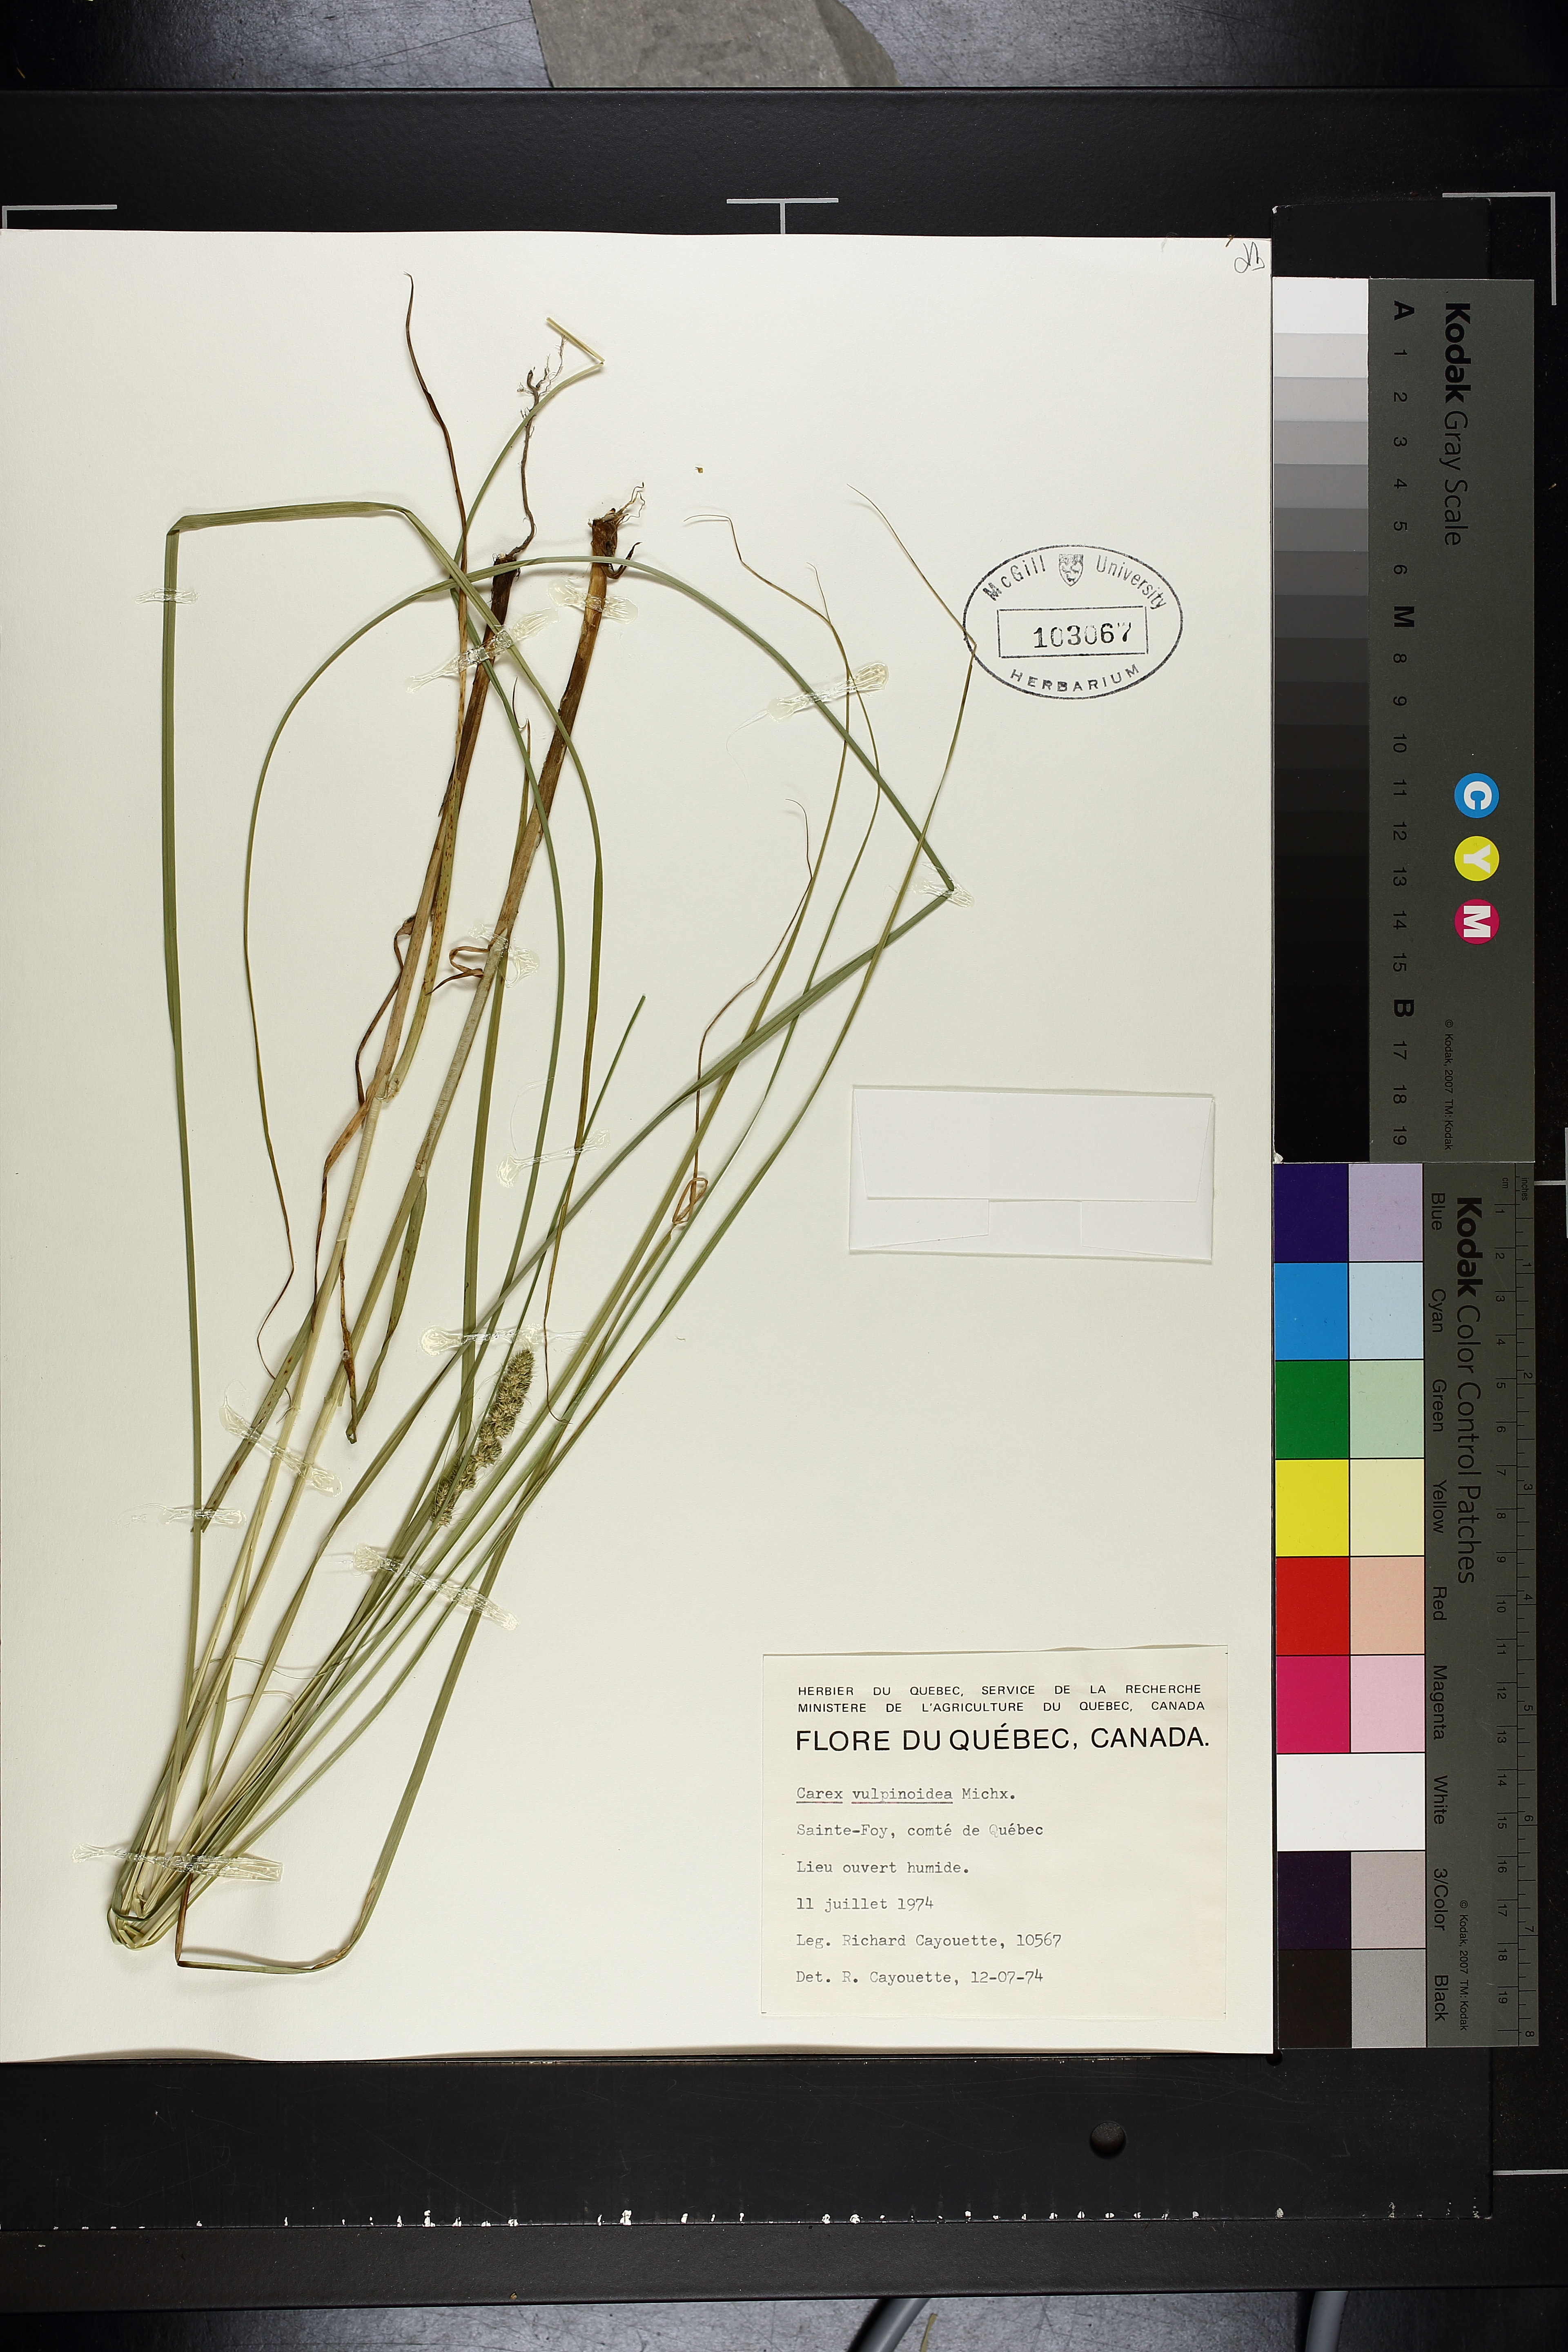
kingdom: Plantae
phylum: Tracheophyta
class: Liliopsida
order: Poales
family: Cyperaceae
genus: Carex
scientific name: Carex vulpinoidea
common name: American fox-sedge
